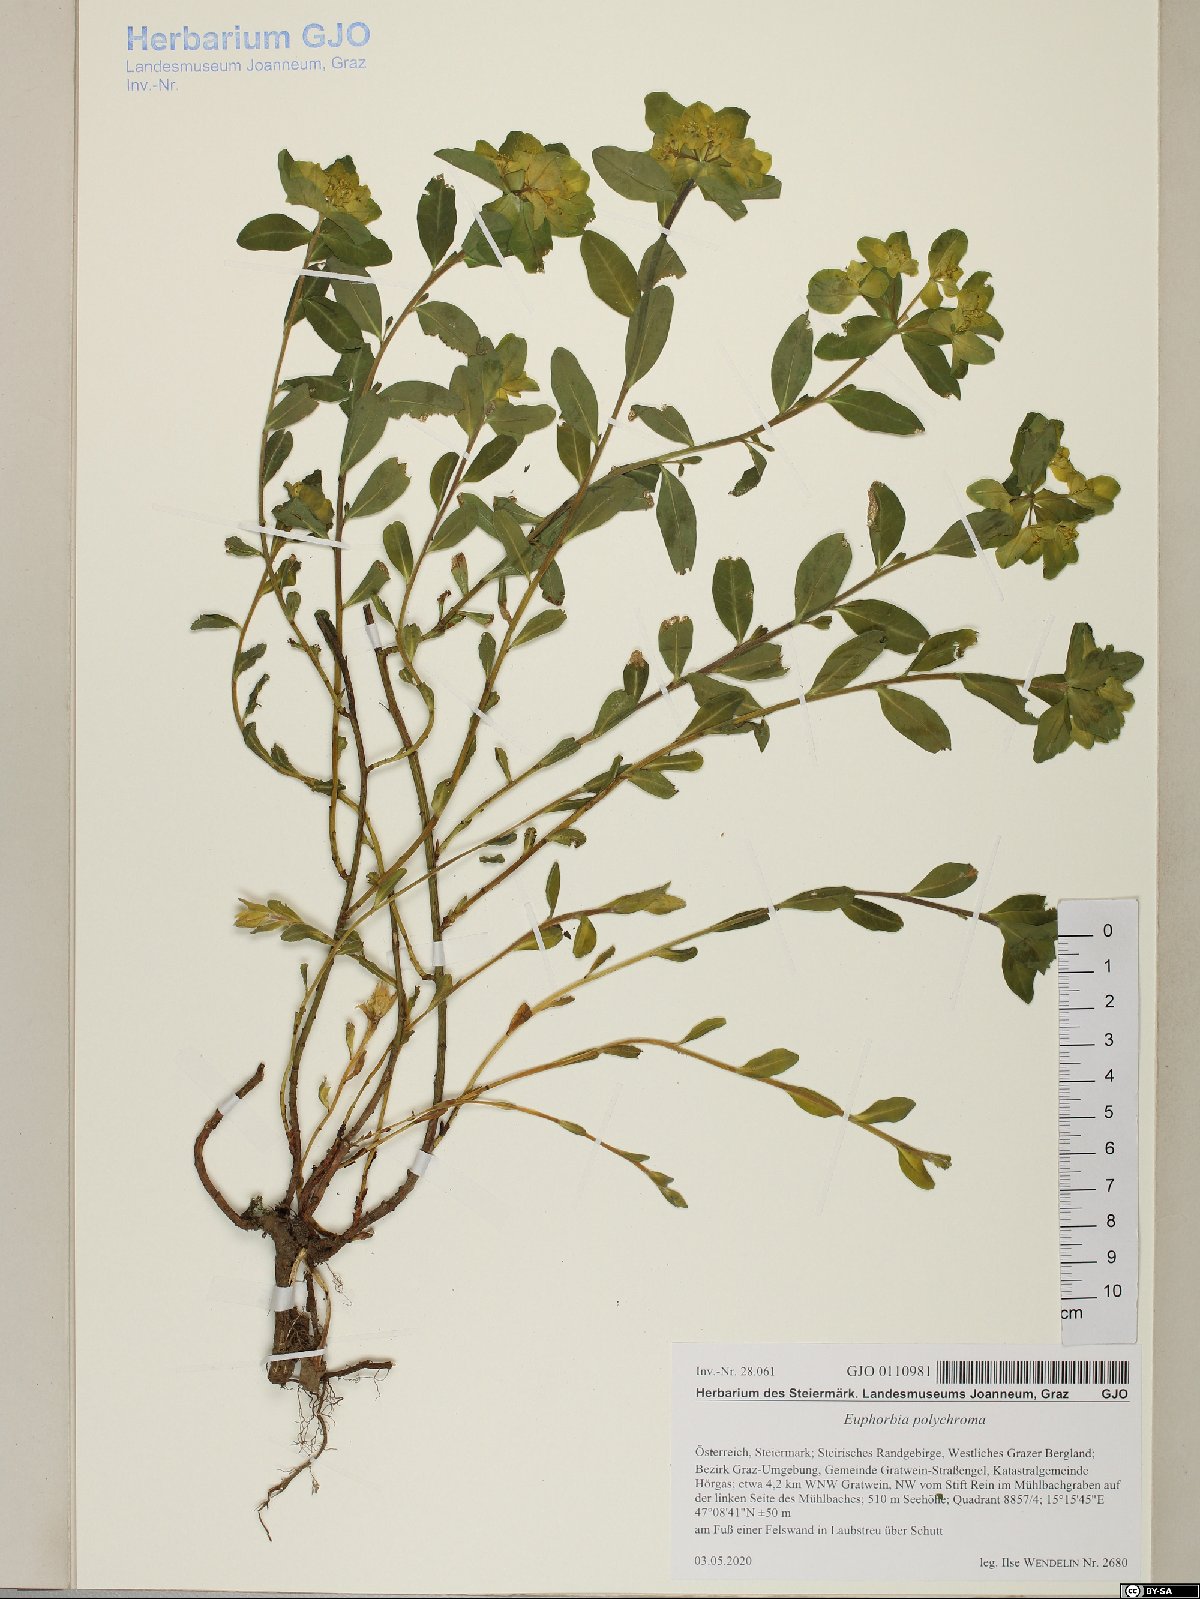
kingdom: Plantae
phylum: Tracheophyta
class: Magnoliopsida
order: Malpighiales
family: Euphorbiaceae
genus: Euphorbia
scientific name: Euphorbia epithymoides
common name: Cushion spurge
